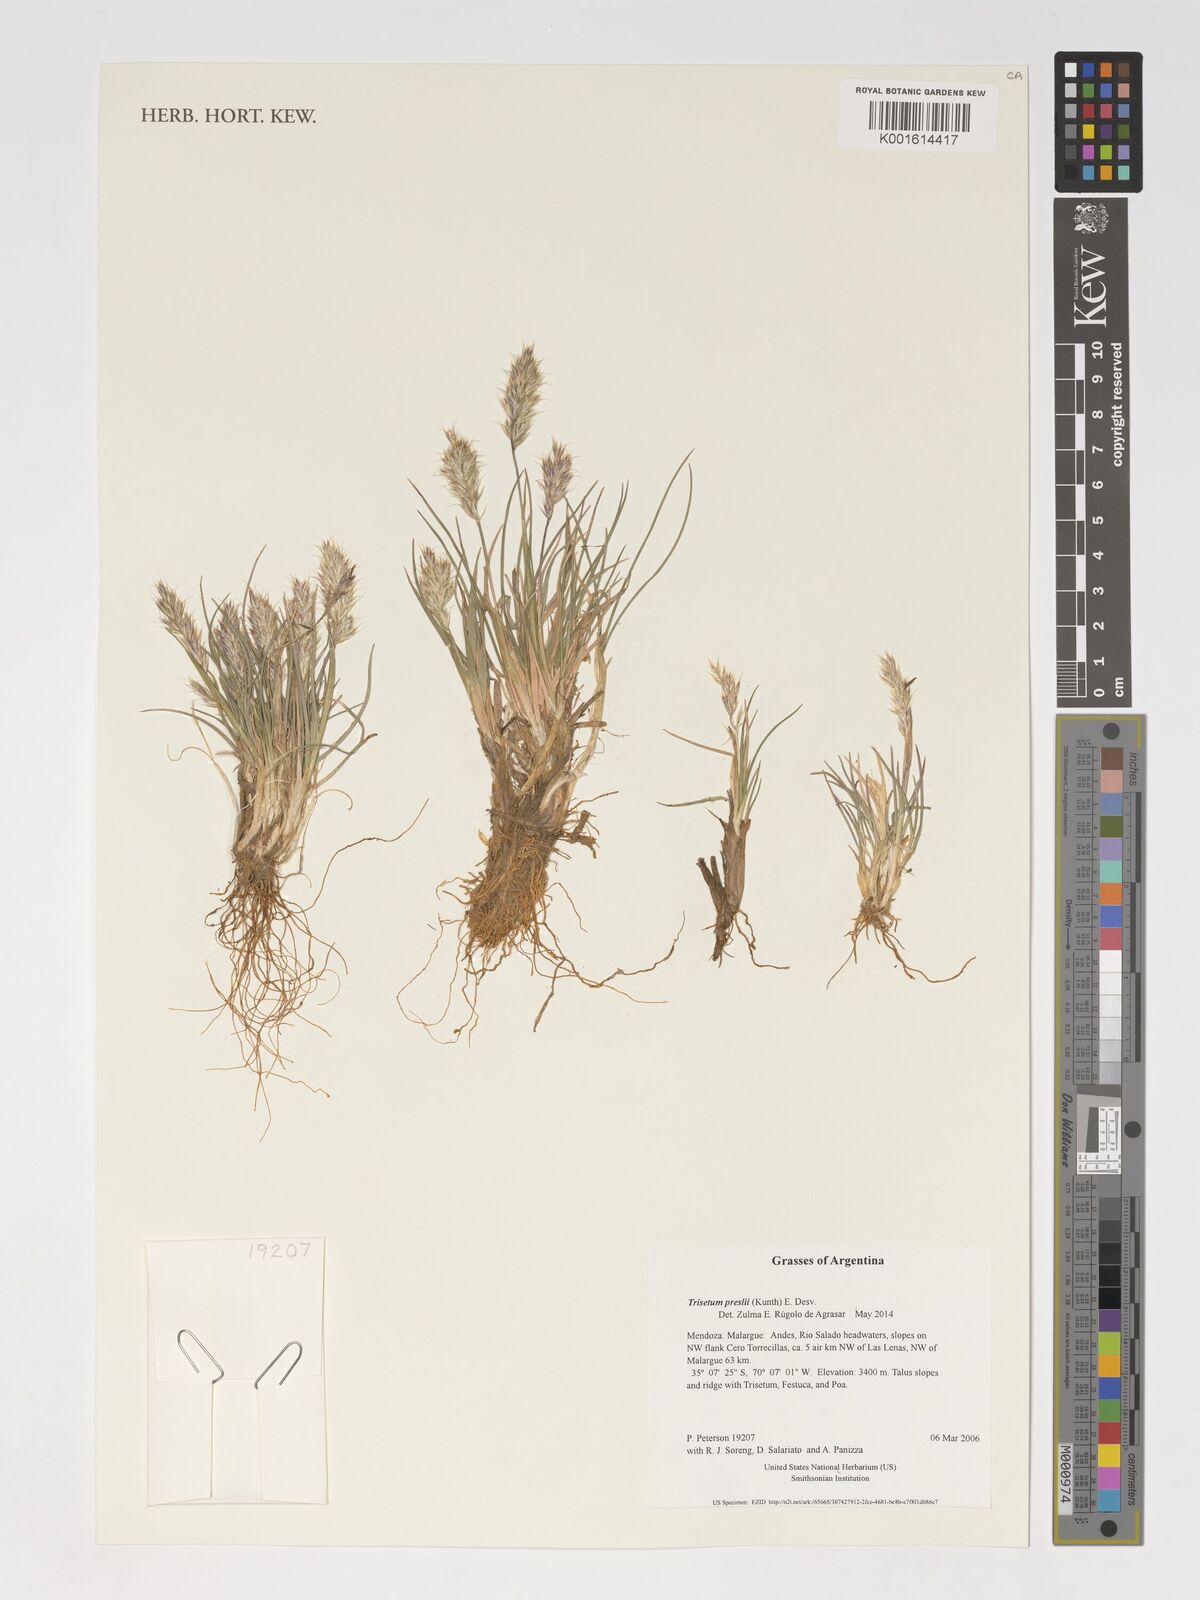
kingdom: Plantae
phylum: Tracheophyta
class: Liliopsida
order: Poales
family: Poaceae
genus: Koeleria
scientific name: Koeleria preslii
